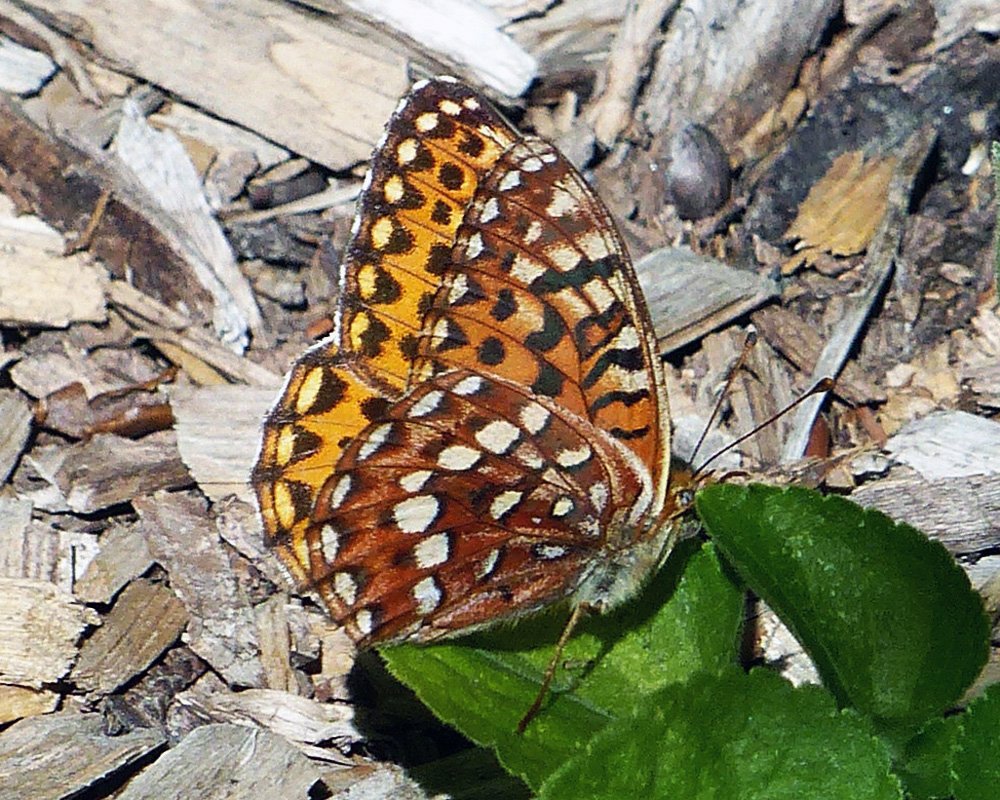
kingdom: Animalia
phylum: Arthropoda
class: Insecta
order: Lepidoptera
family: Nymphalidae
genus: Speyeria
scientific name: Speyeria hydaspe
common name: Hydaspe Fritillary
